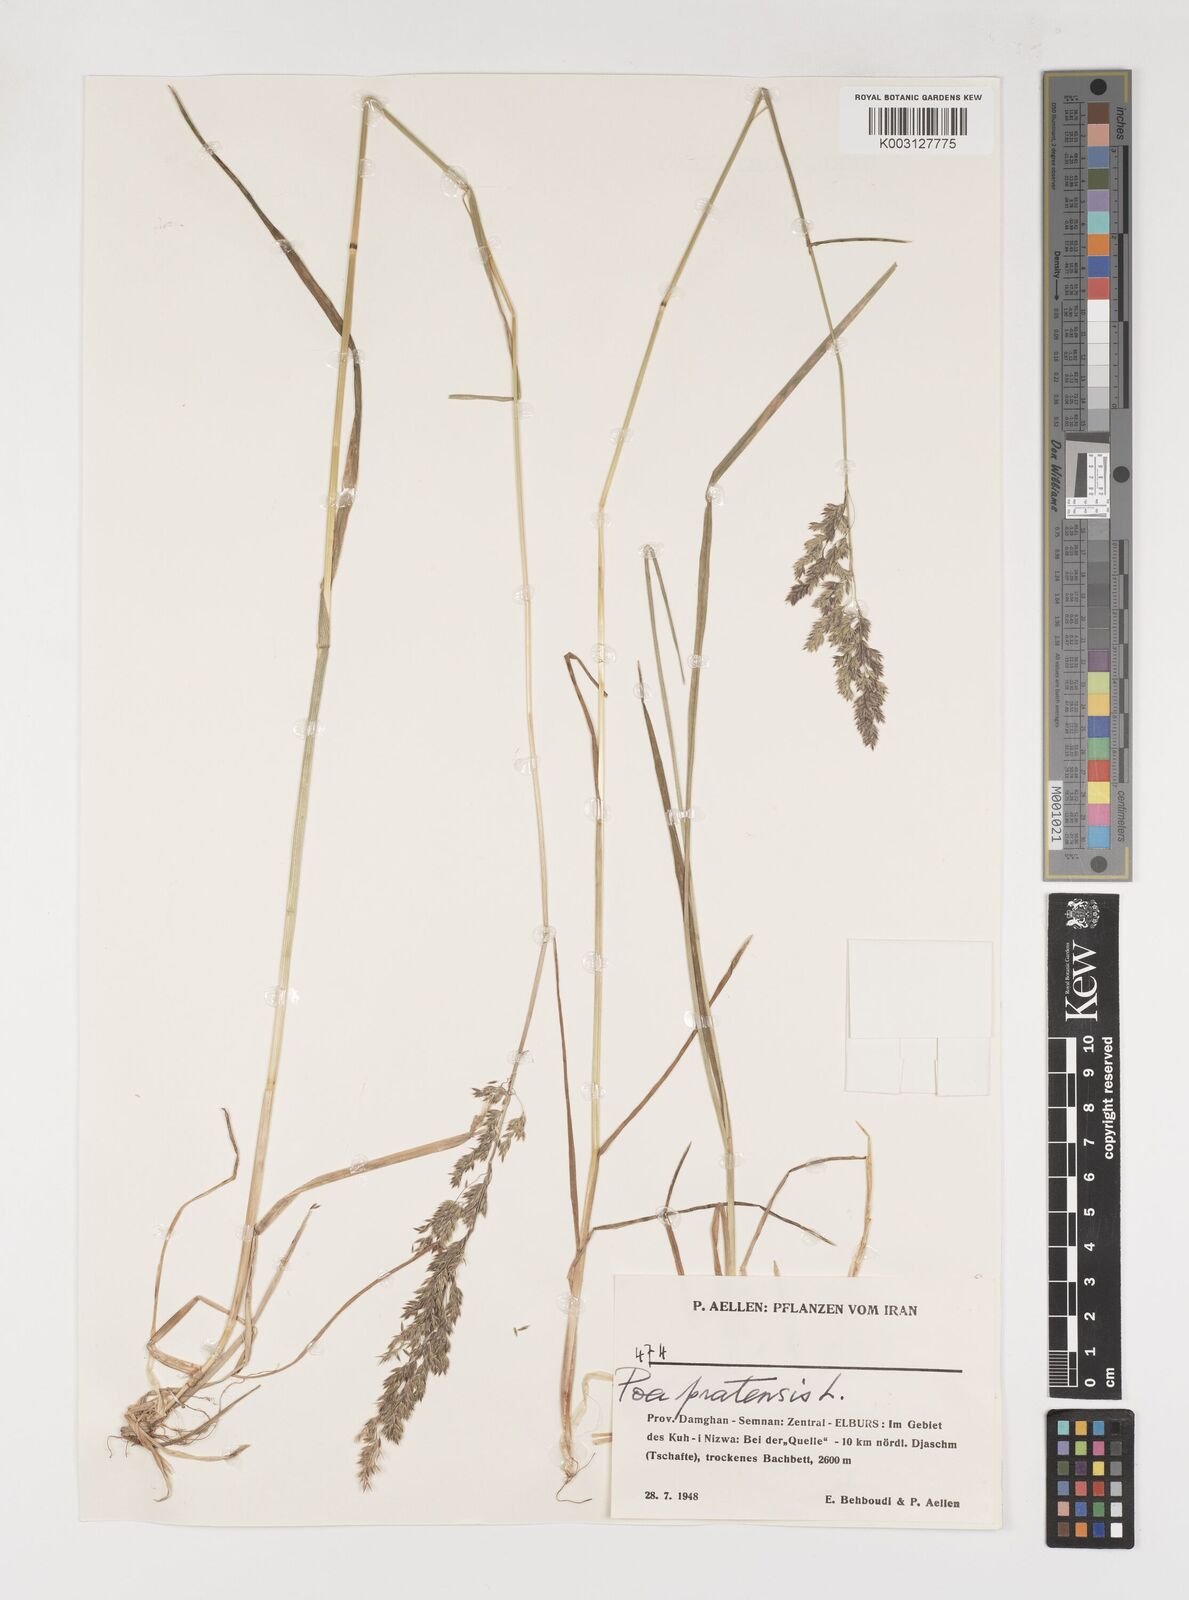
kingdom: Plantae
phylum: Tracheophyta
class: Liliopsida
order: Poales
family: Poaceae
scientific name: Poaceae
